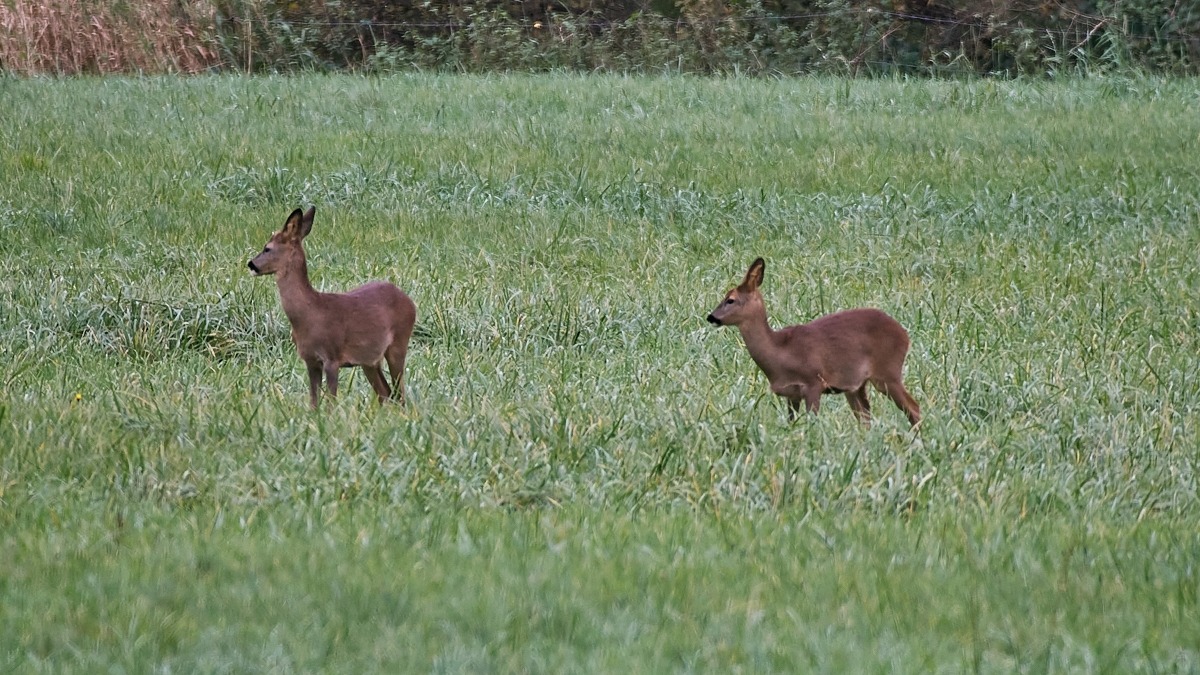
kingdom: Animalia
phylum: Chordata
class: Mammalia
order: Artiodactyla
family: Cervidae
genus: Capreolus
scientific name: Capreolus capreolus
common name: Rådyr
